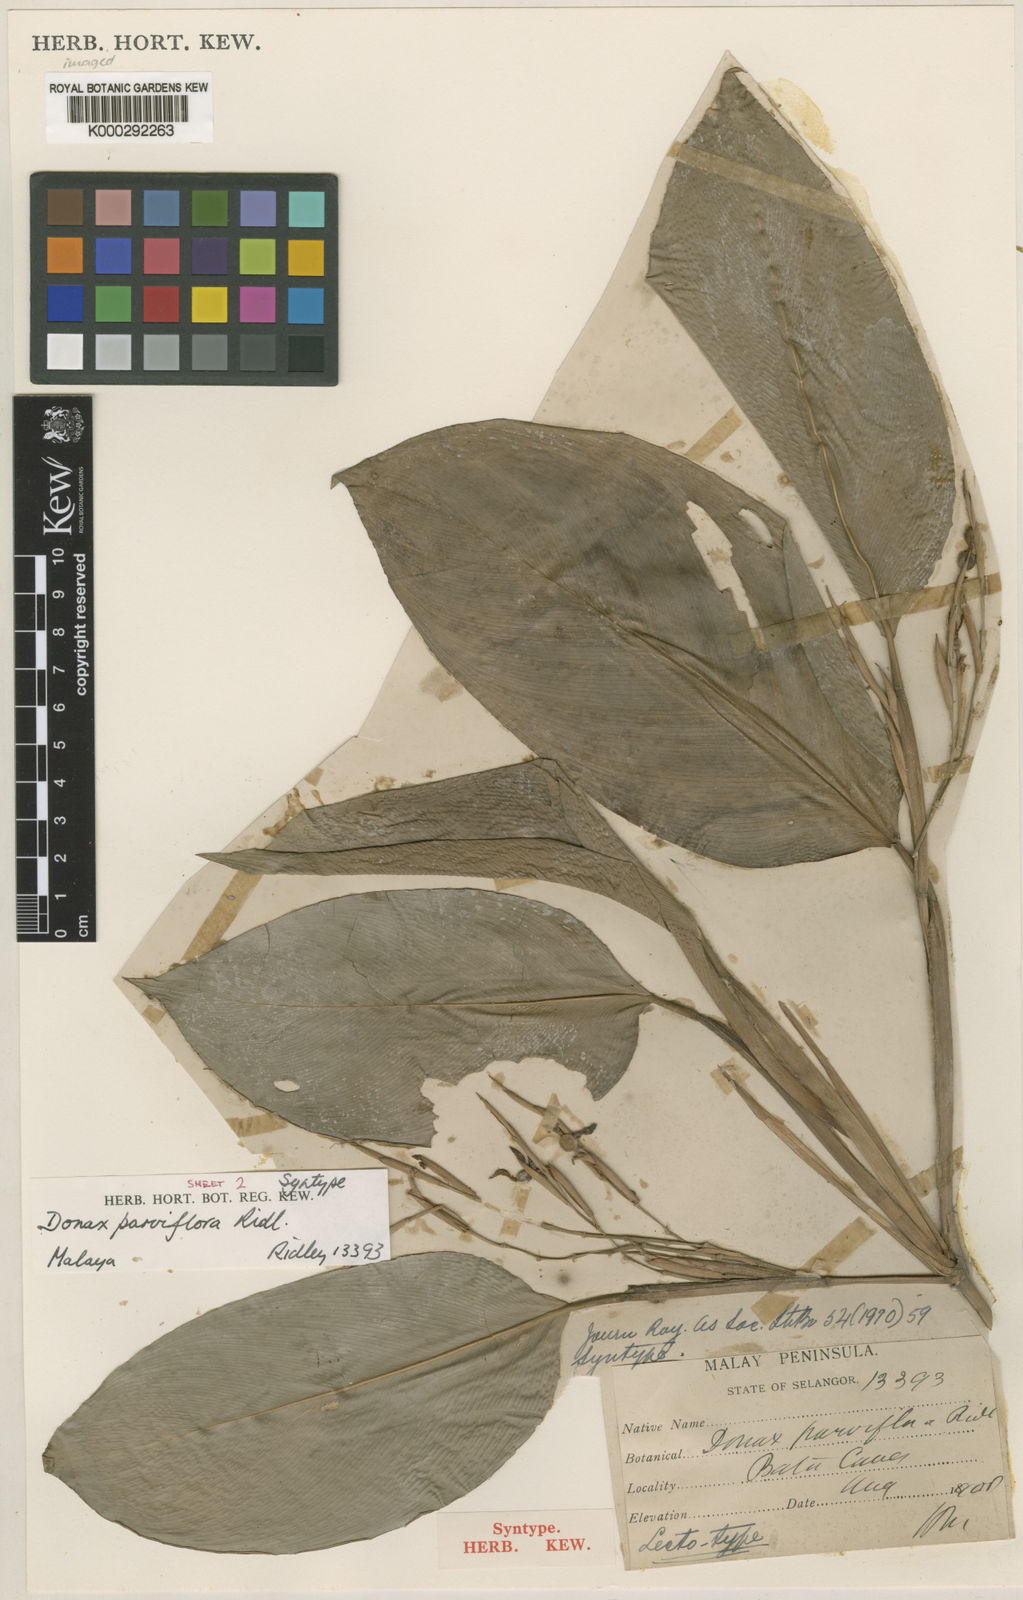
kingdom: Plantae
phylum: Tracheophyta
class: Liliopsida
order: Zingiberales
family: Marantaceae
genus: Donax
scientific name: Donax canniformis
